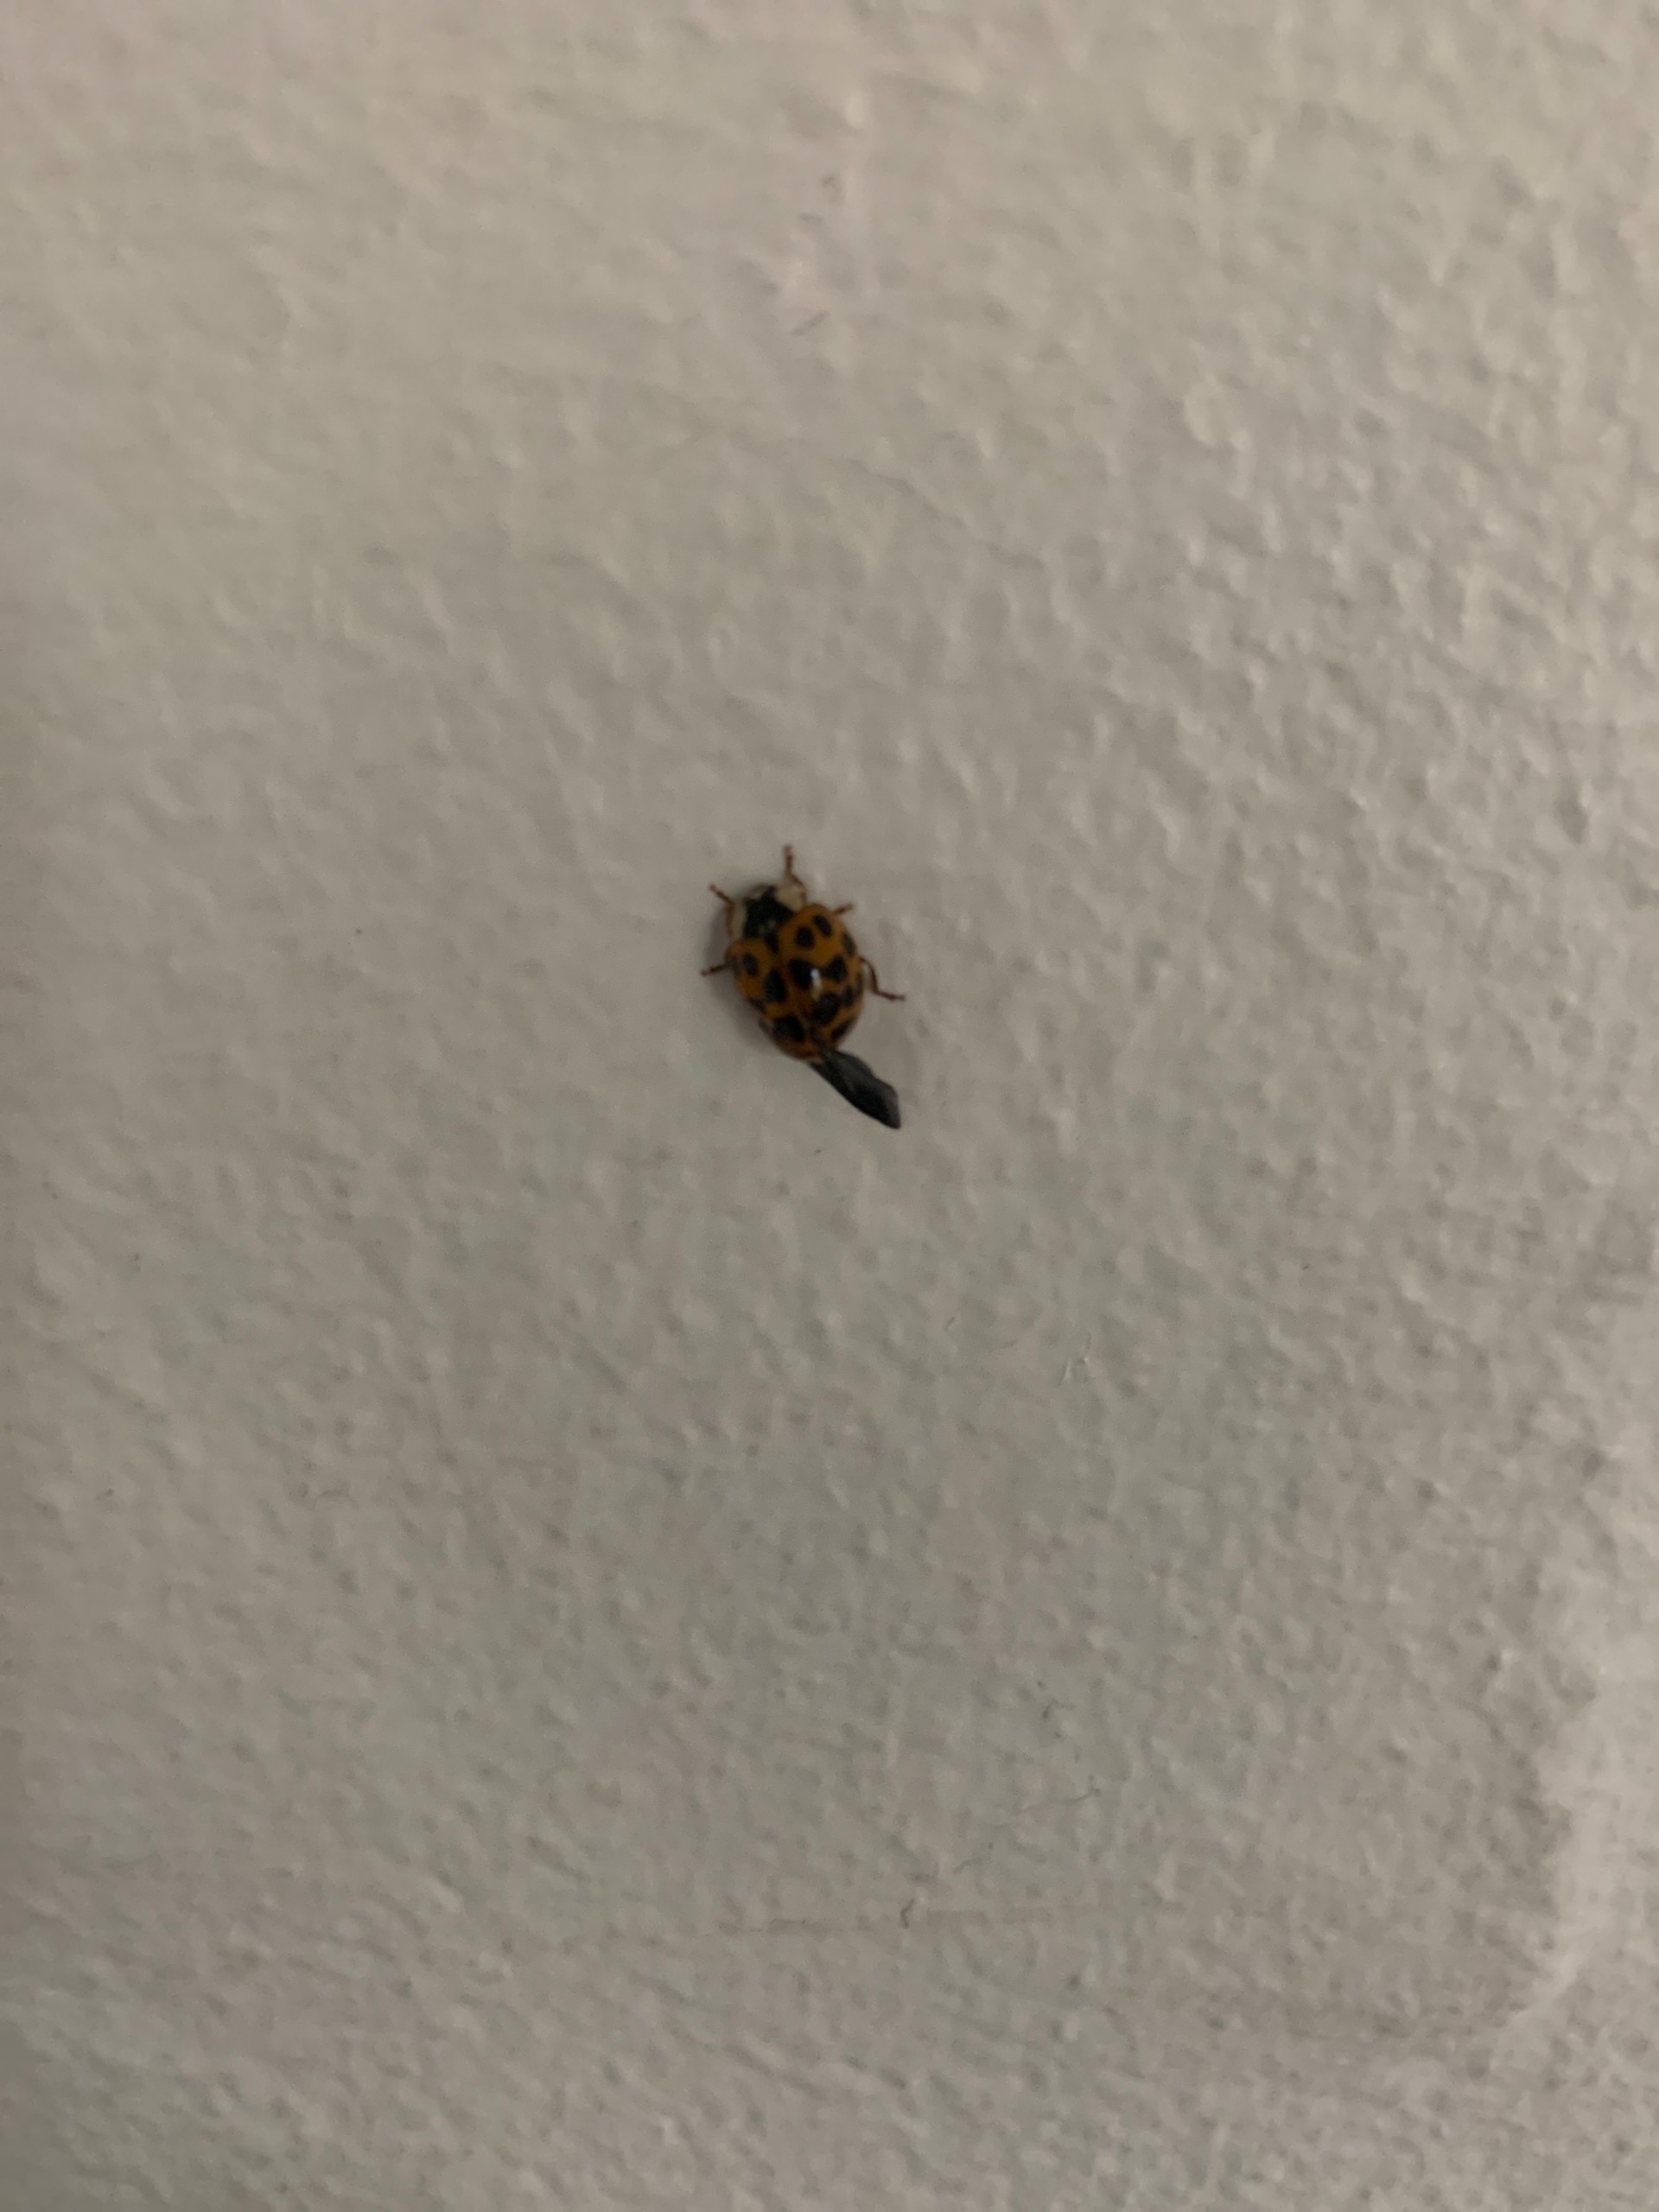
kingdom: Animalia
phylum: Arthropoda
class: Insecta
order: Coleoptera
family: Coccinellidae
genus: Harmonia
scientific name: Harmonia axyridis
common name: Harlekinmariehøne
